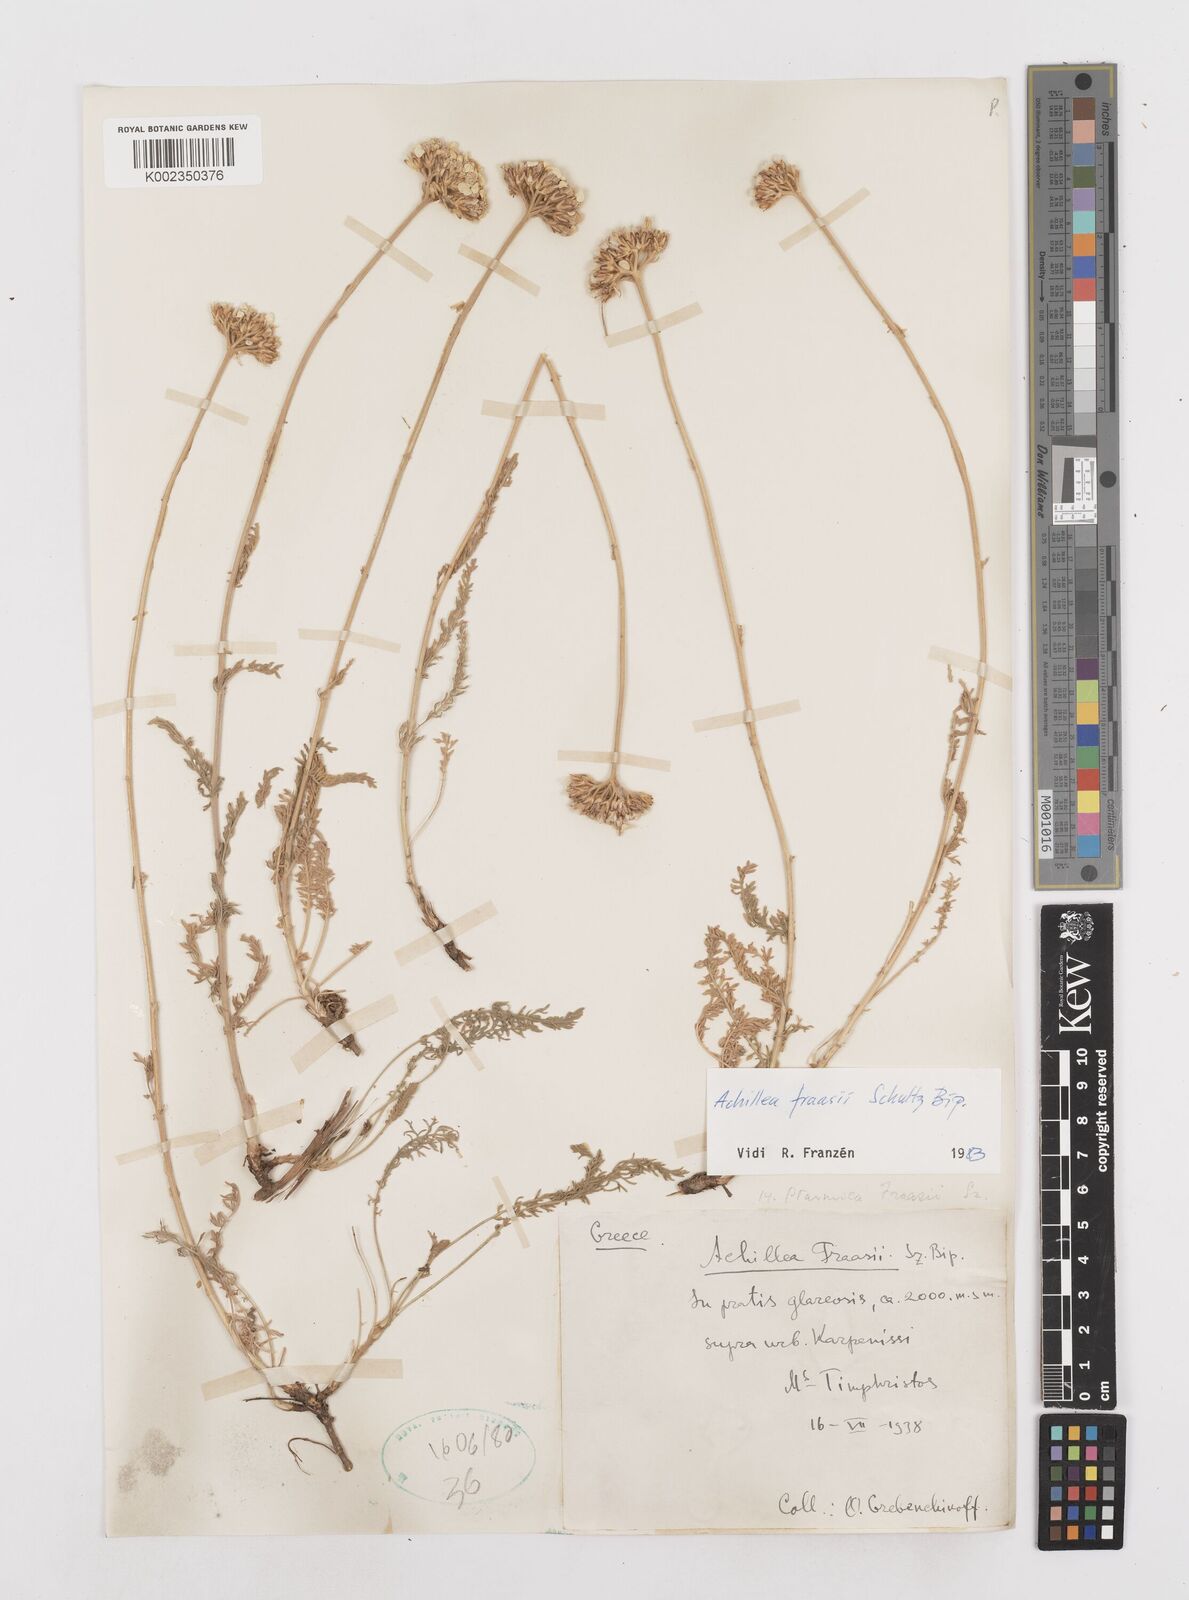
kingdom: Plantae
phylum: Tracheophyta
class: Magnoliopsida
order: Asterales
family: Asteraceae
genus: Achillea
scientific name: Achillea fraasii
